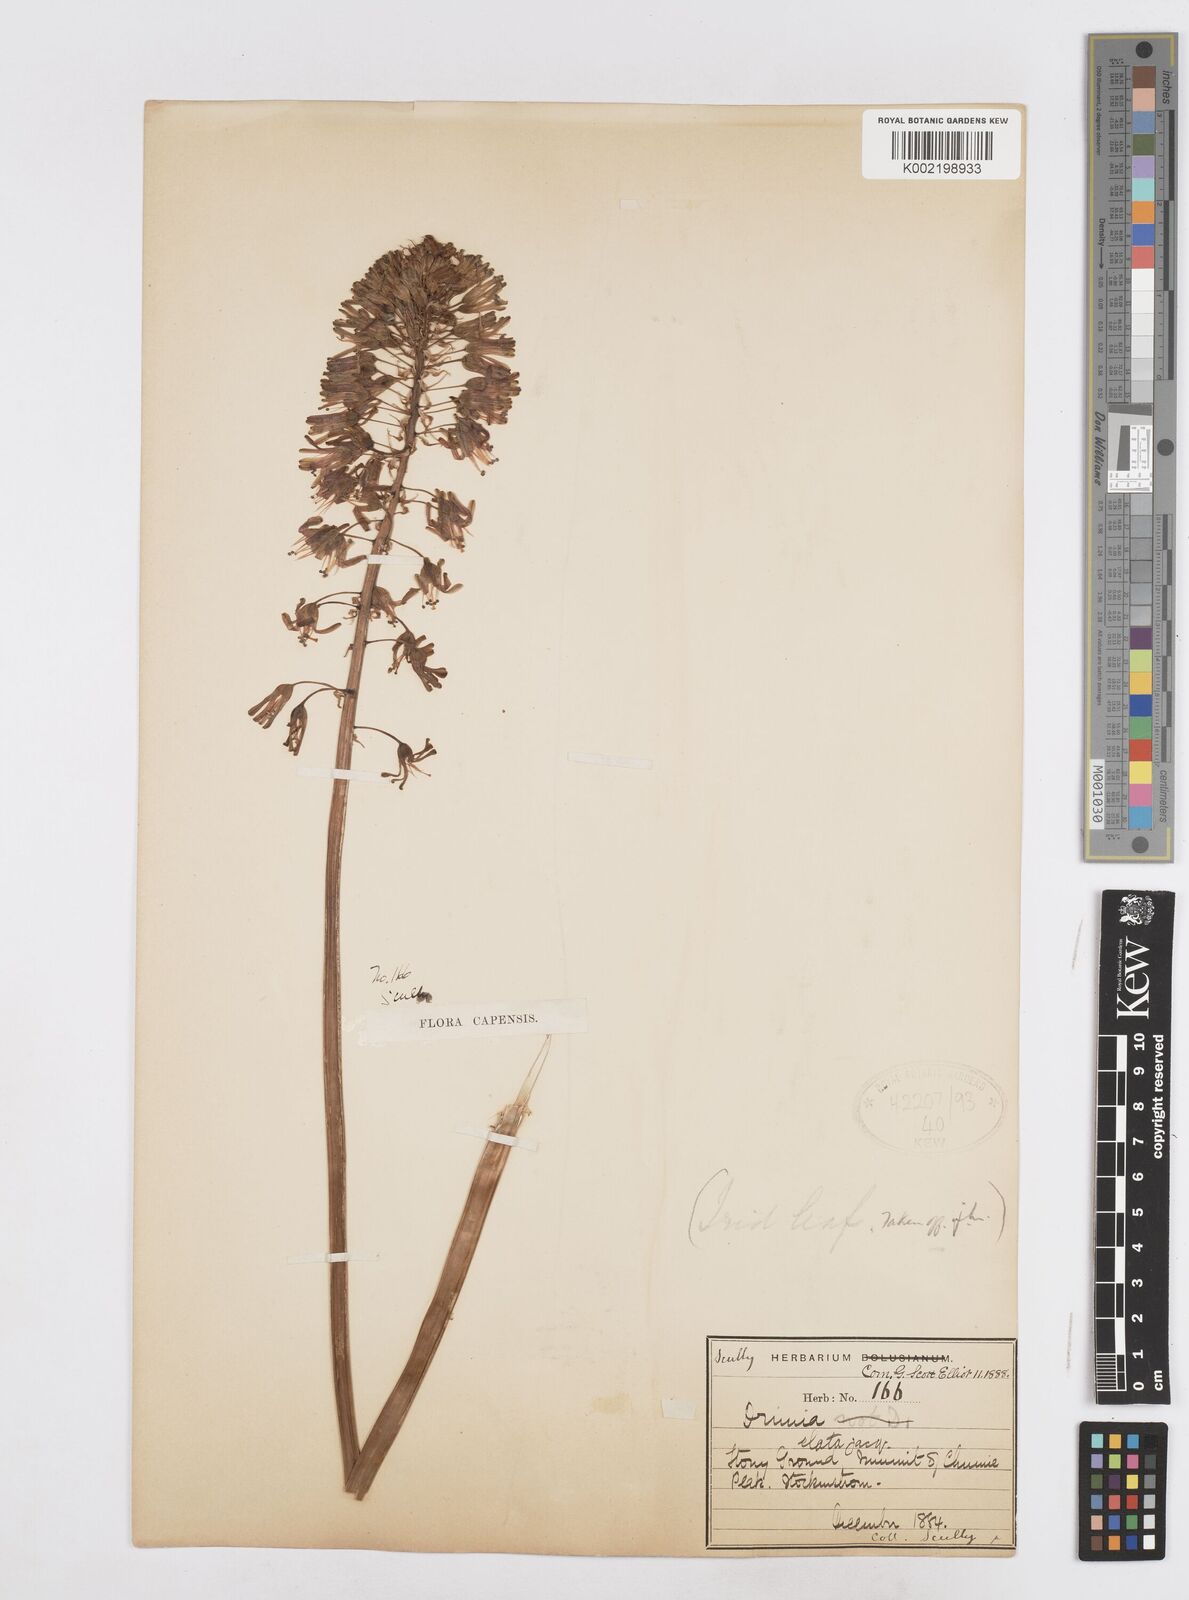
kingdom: Plantae
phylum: Tracheophyta
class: Liliopsida
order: Asparagales
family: Asparagaceae
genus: Drimia
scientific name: Drimia elata
